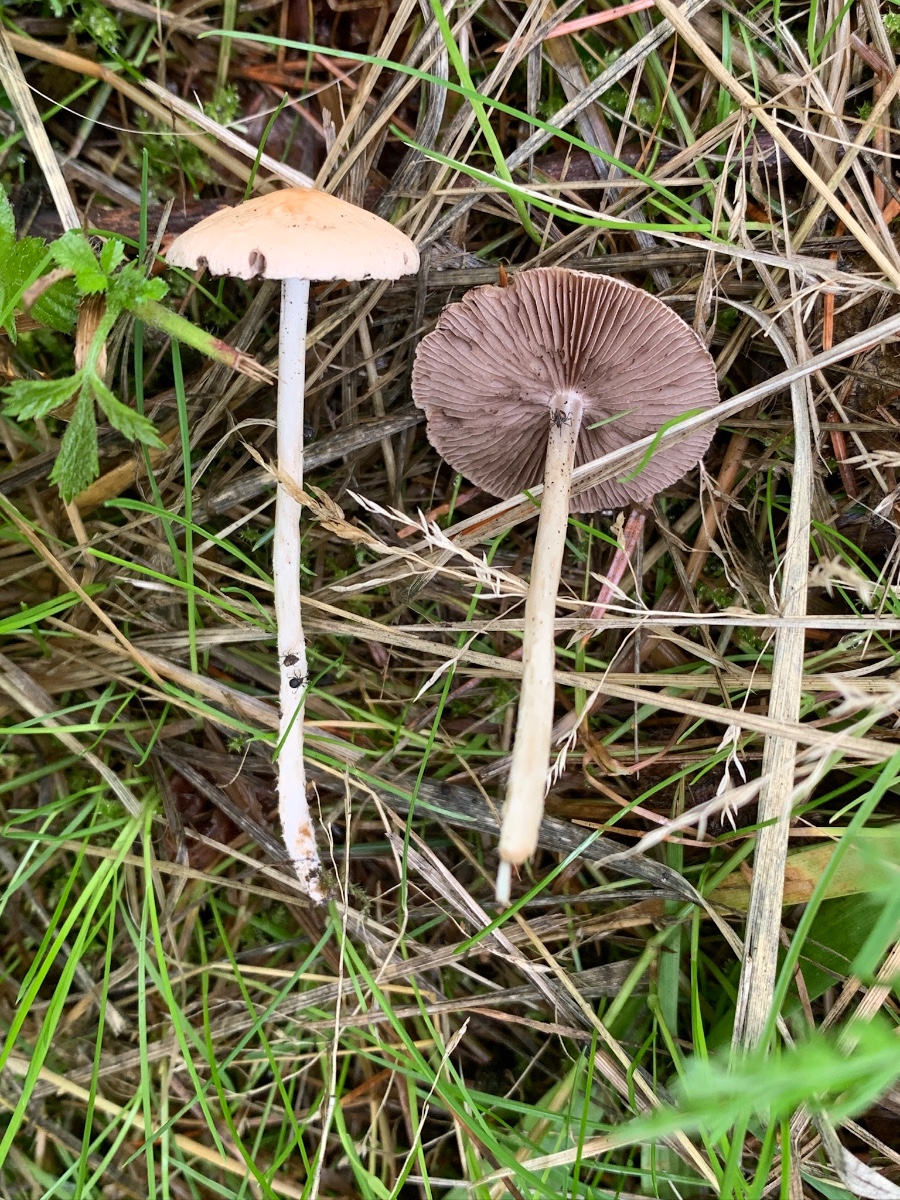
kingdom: Fungi
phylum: Basidiomycota
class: Agaricomycetes
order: Agaricales
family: Bolbitiaceae
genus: Bolbitius
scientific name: Bolbitius titubans
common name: almindelig gulhat
